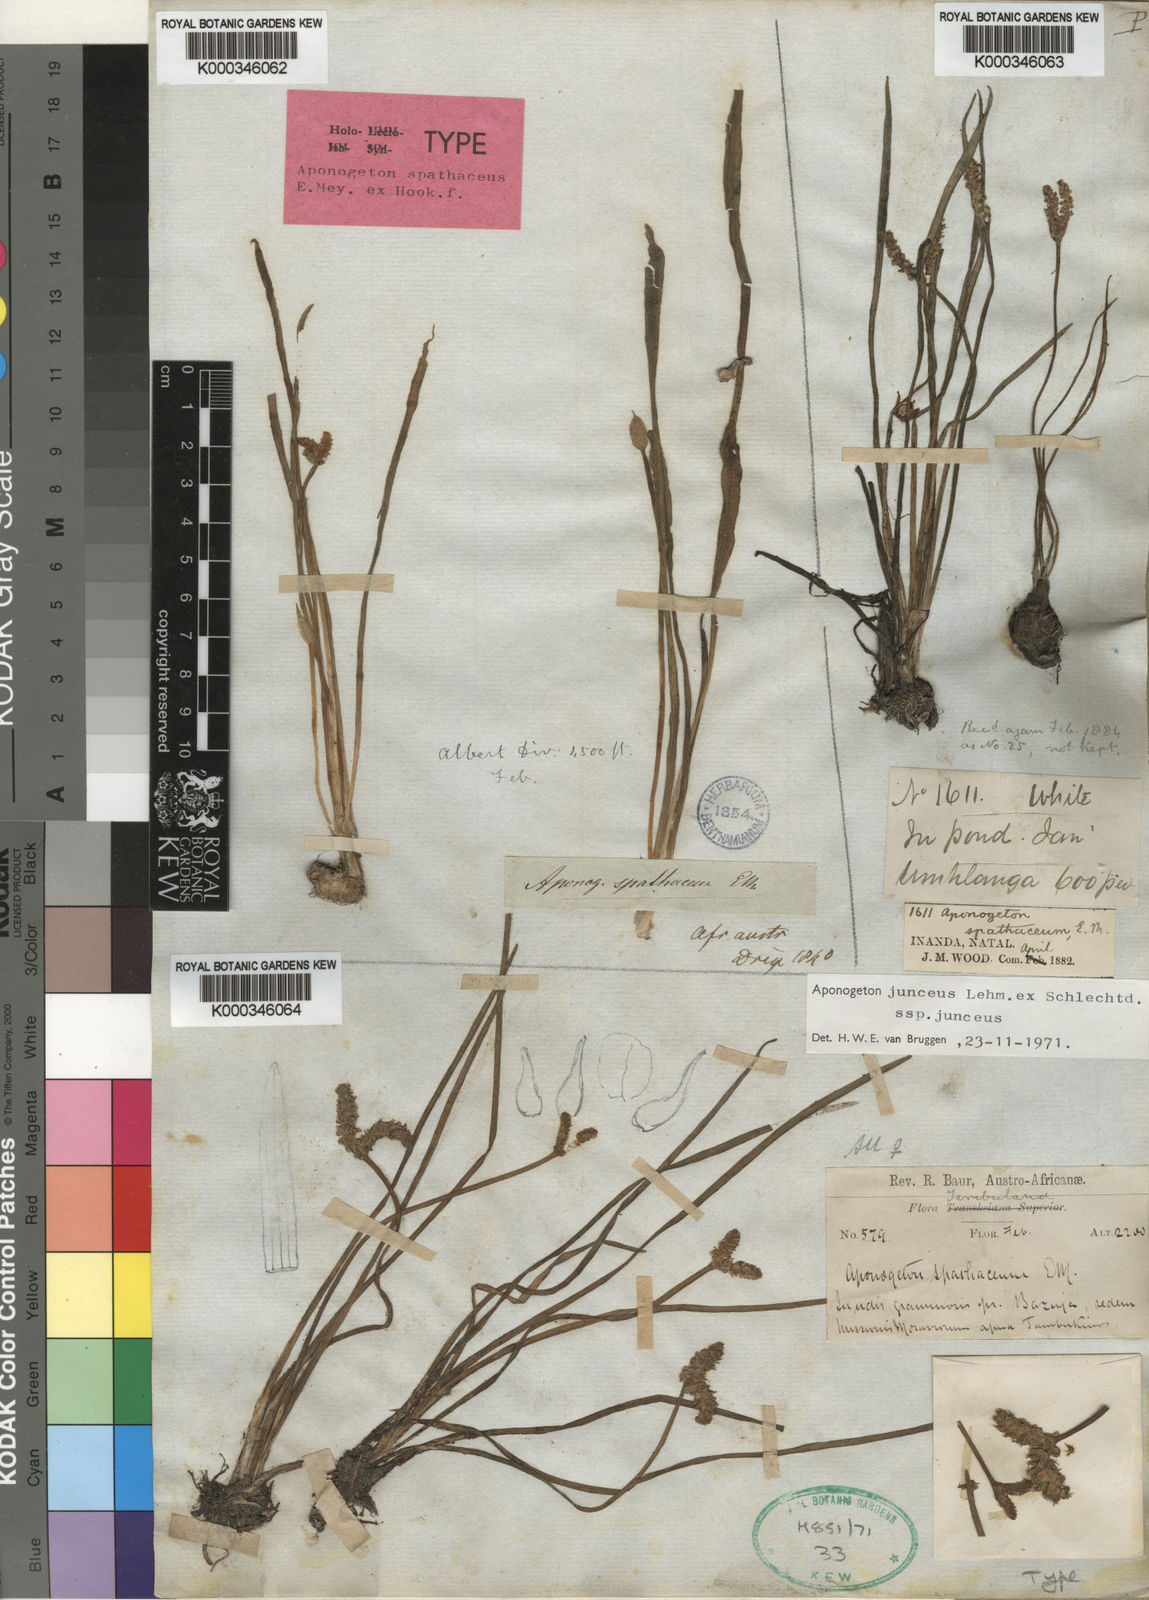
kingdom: Plantae
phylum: Tracheophyta
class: Liliopsida
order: Alismatales
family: Aponogetonaceae
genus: Aponogeton
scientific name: Aponogeton junceus
